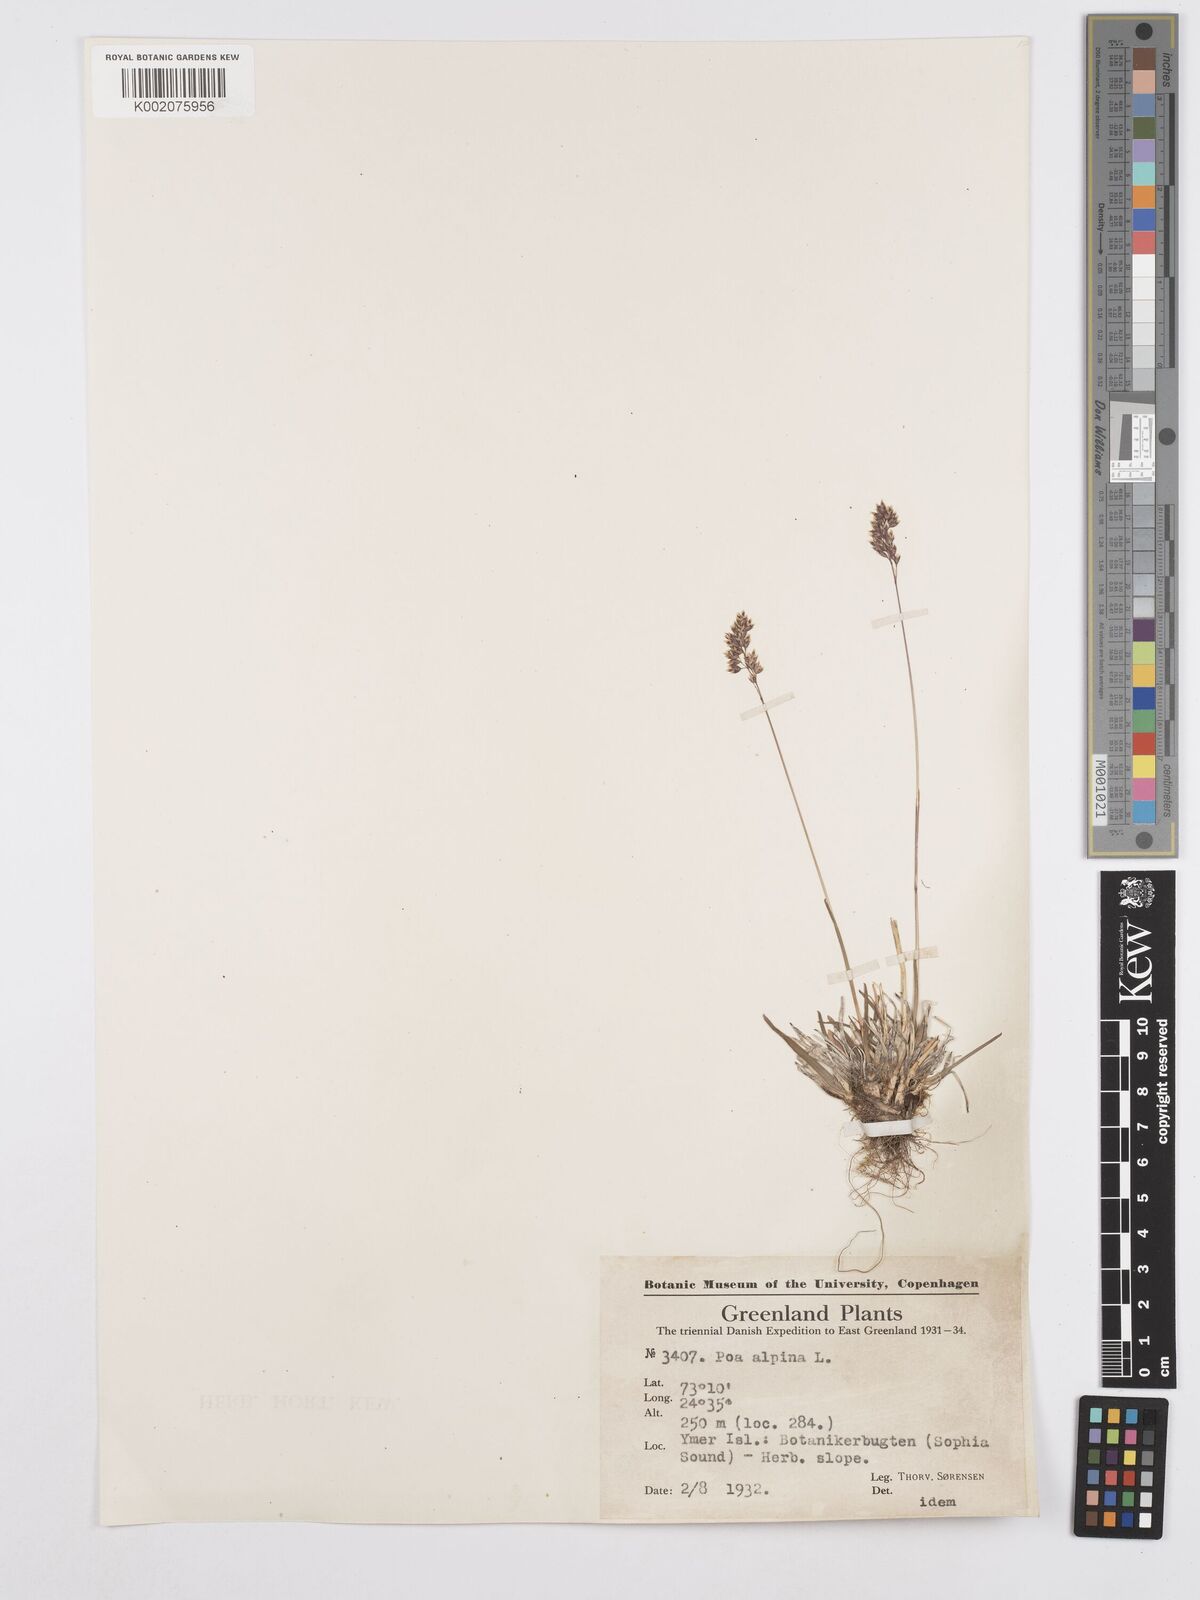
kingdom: Plantae
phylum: Tracheophyta
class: Liliopsida
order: Poales
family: Poaceae
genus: Poa
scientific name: Poa alpina
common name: Alpine bluegrass
